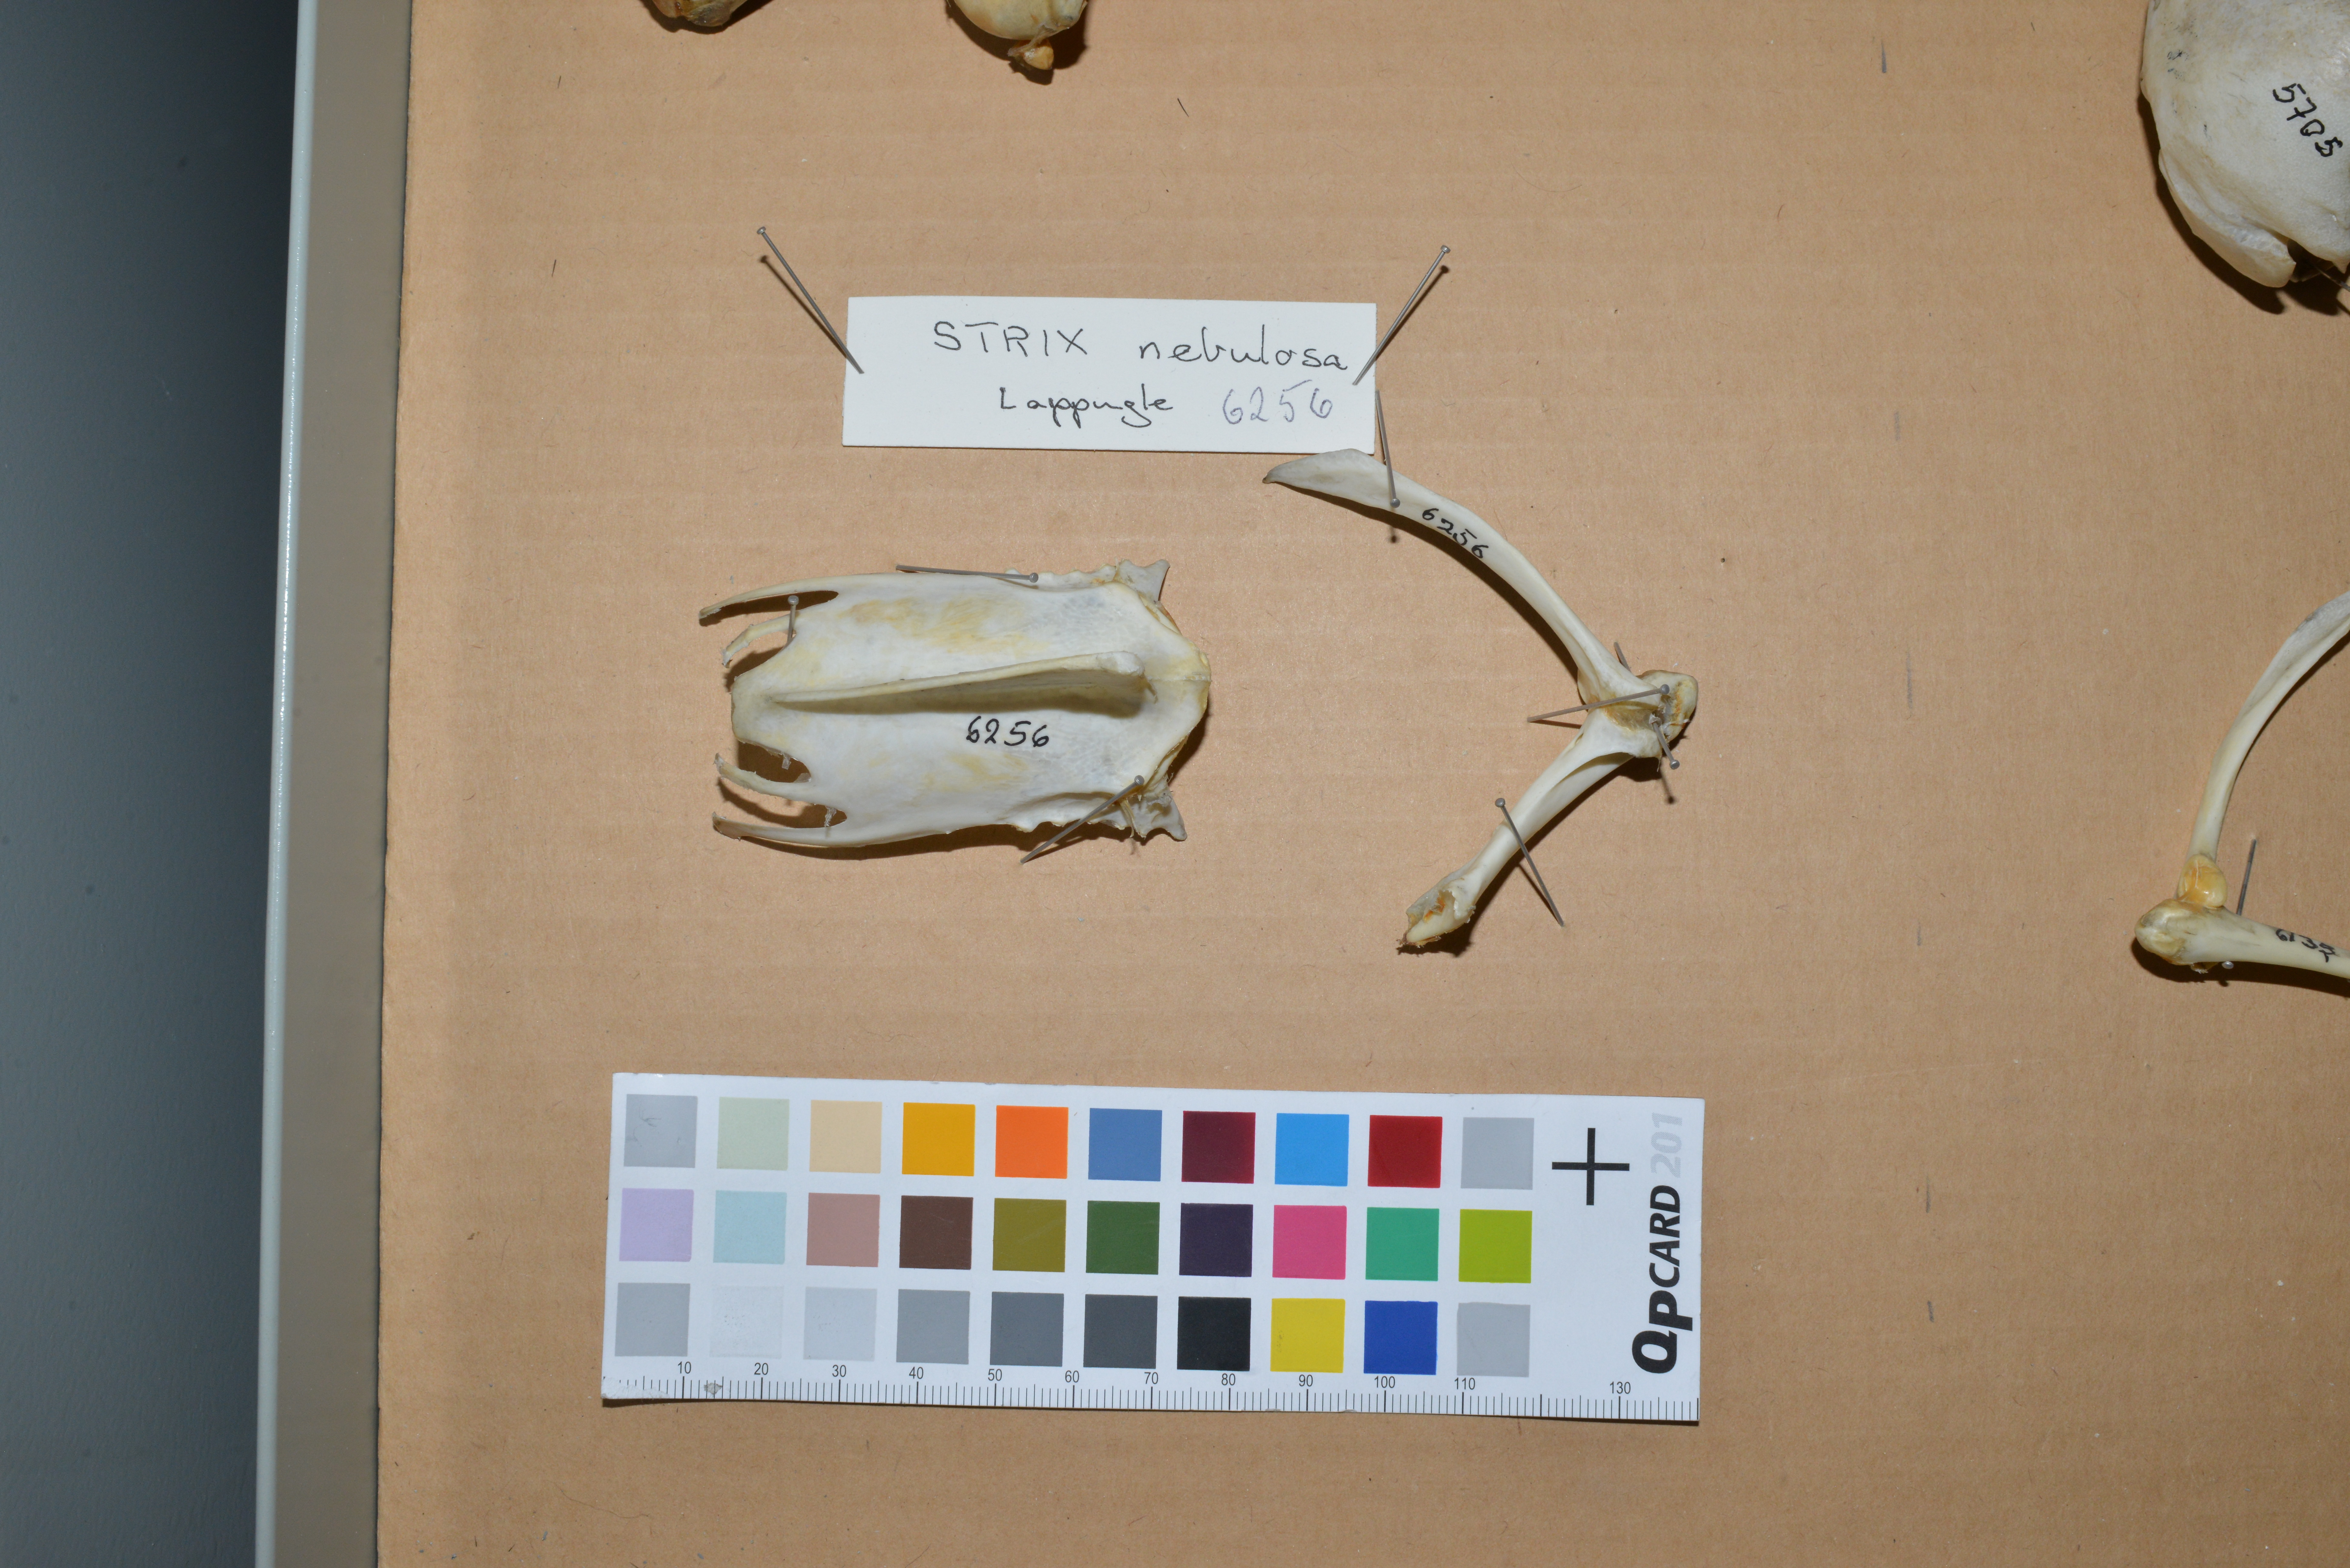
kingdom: Animalia
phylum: Chordata
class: Aves
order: Strigiformes
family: Strigidae
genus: Strix
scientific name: Strix nebulosa
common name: Great grey owl
